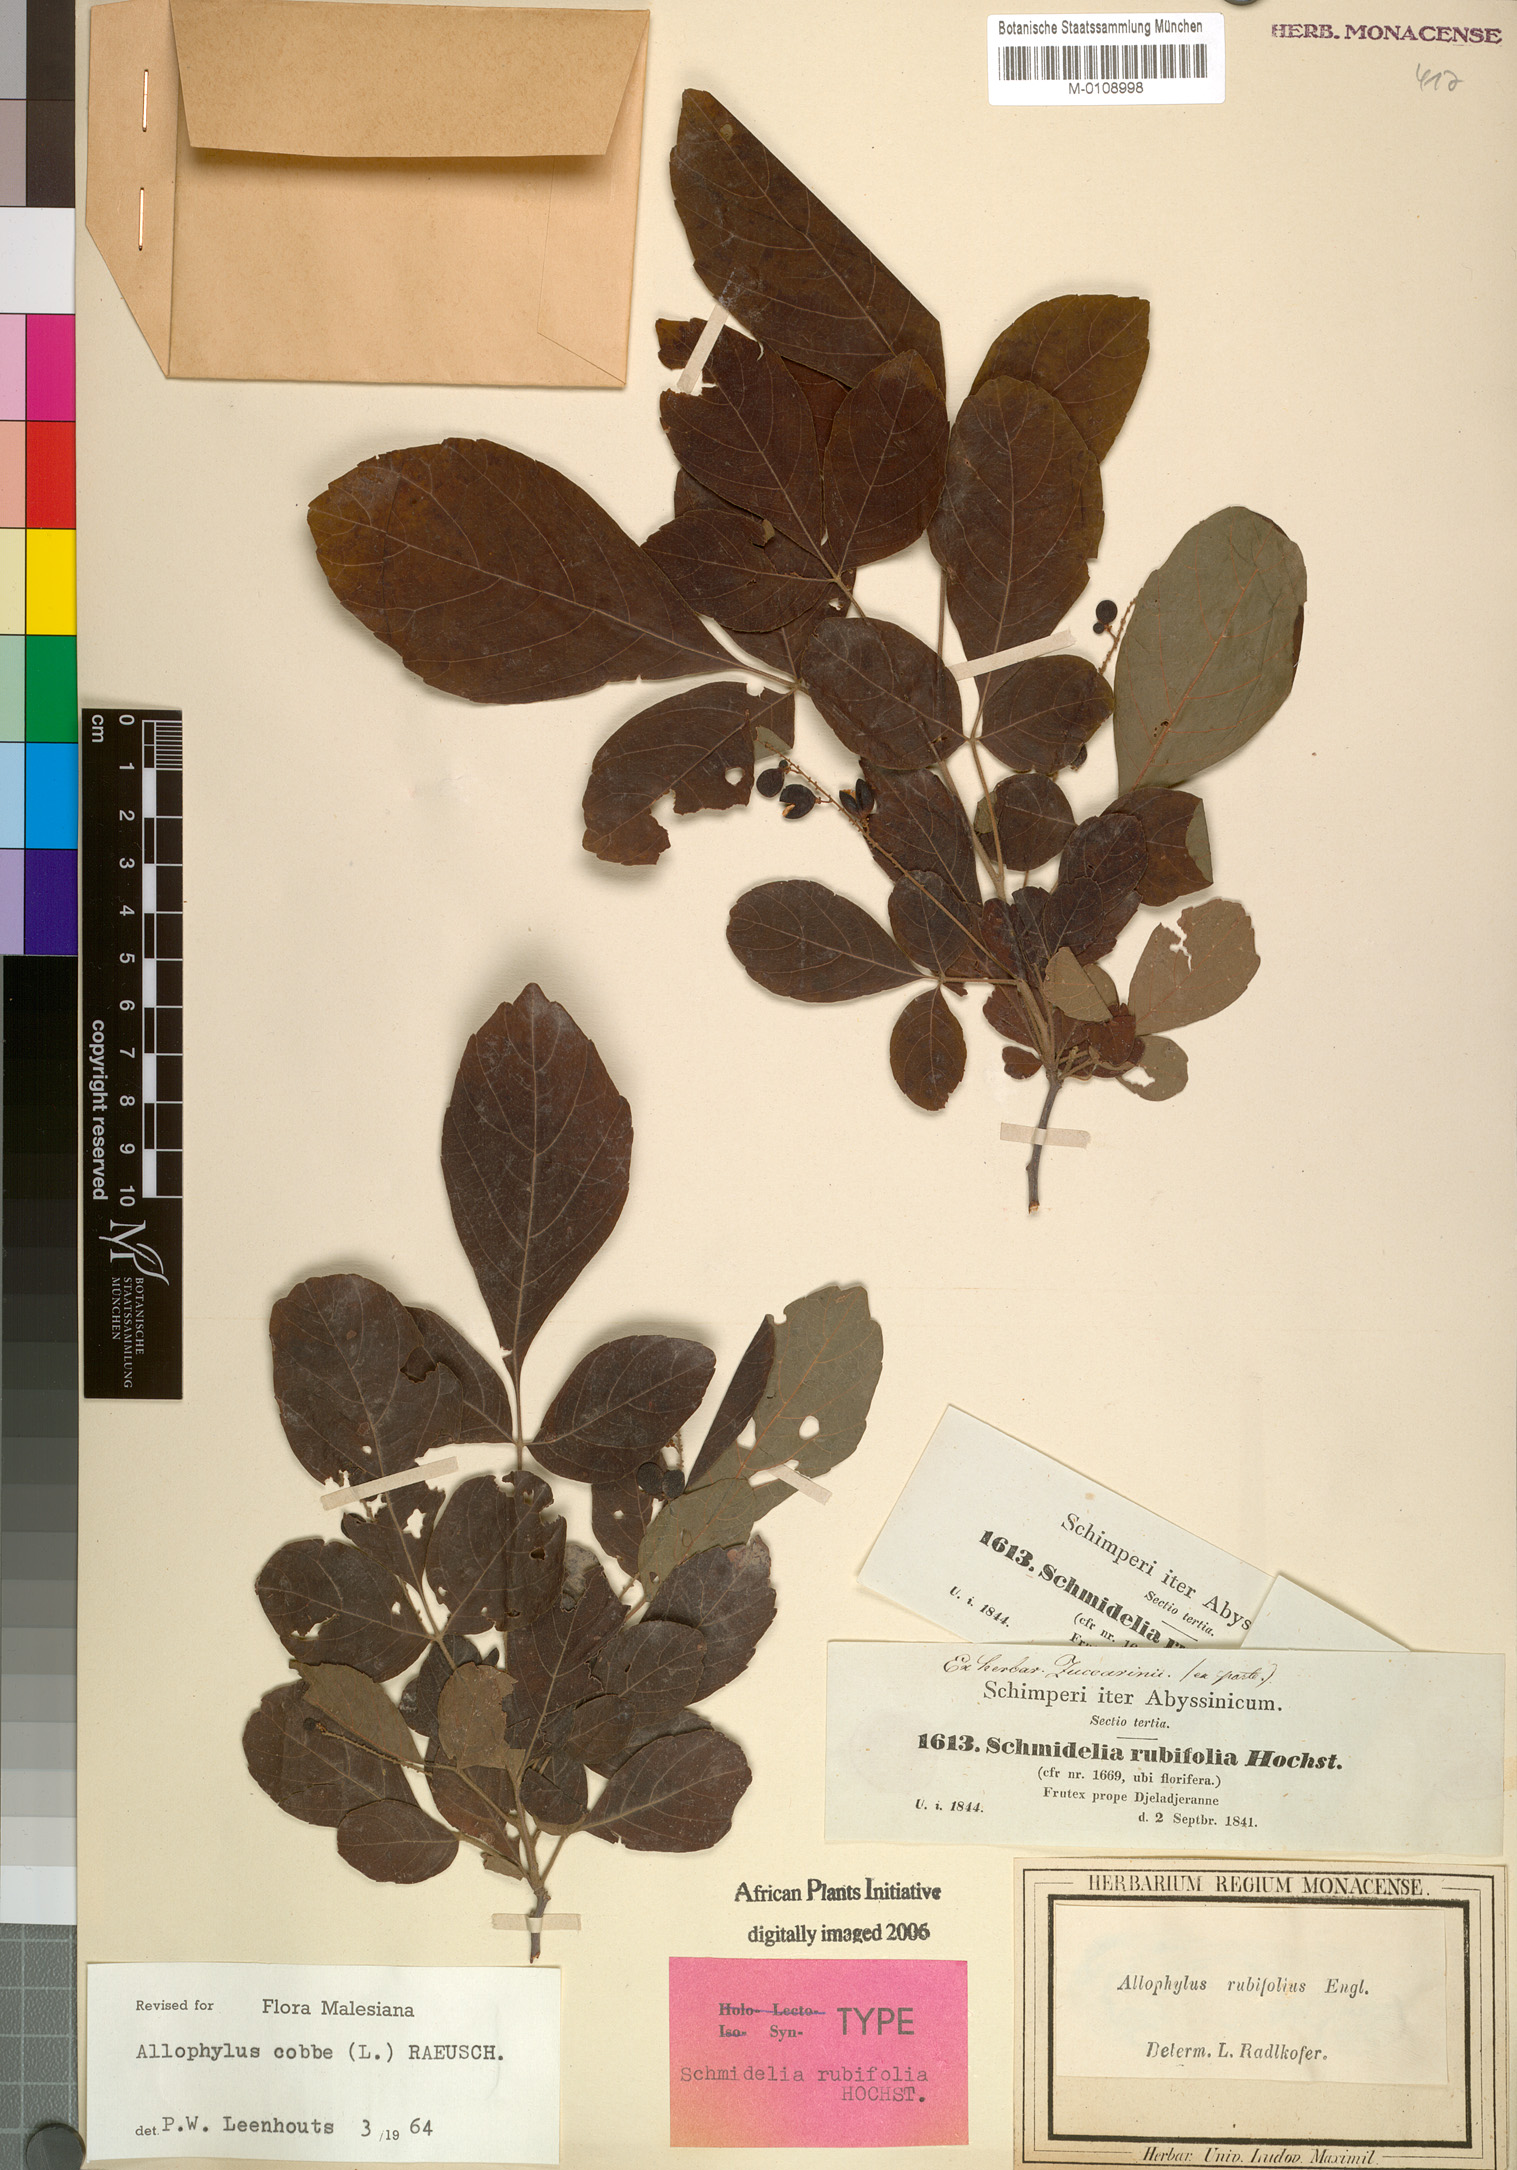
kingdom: Plantae
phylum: Tracheophyta
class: Magnoliopsida
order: Sapindales
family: Sapindaceae
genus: Allophylus
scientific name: Allophylus rubifolius
